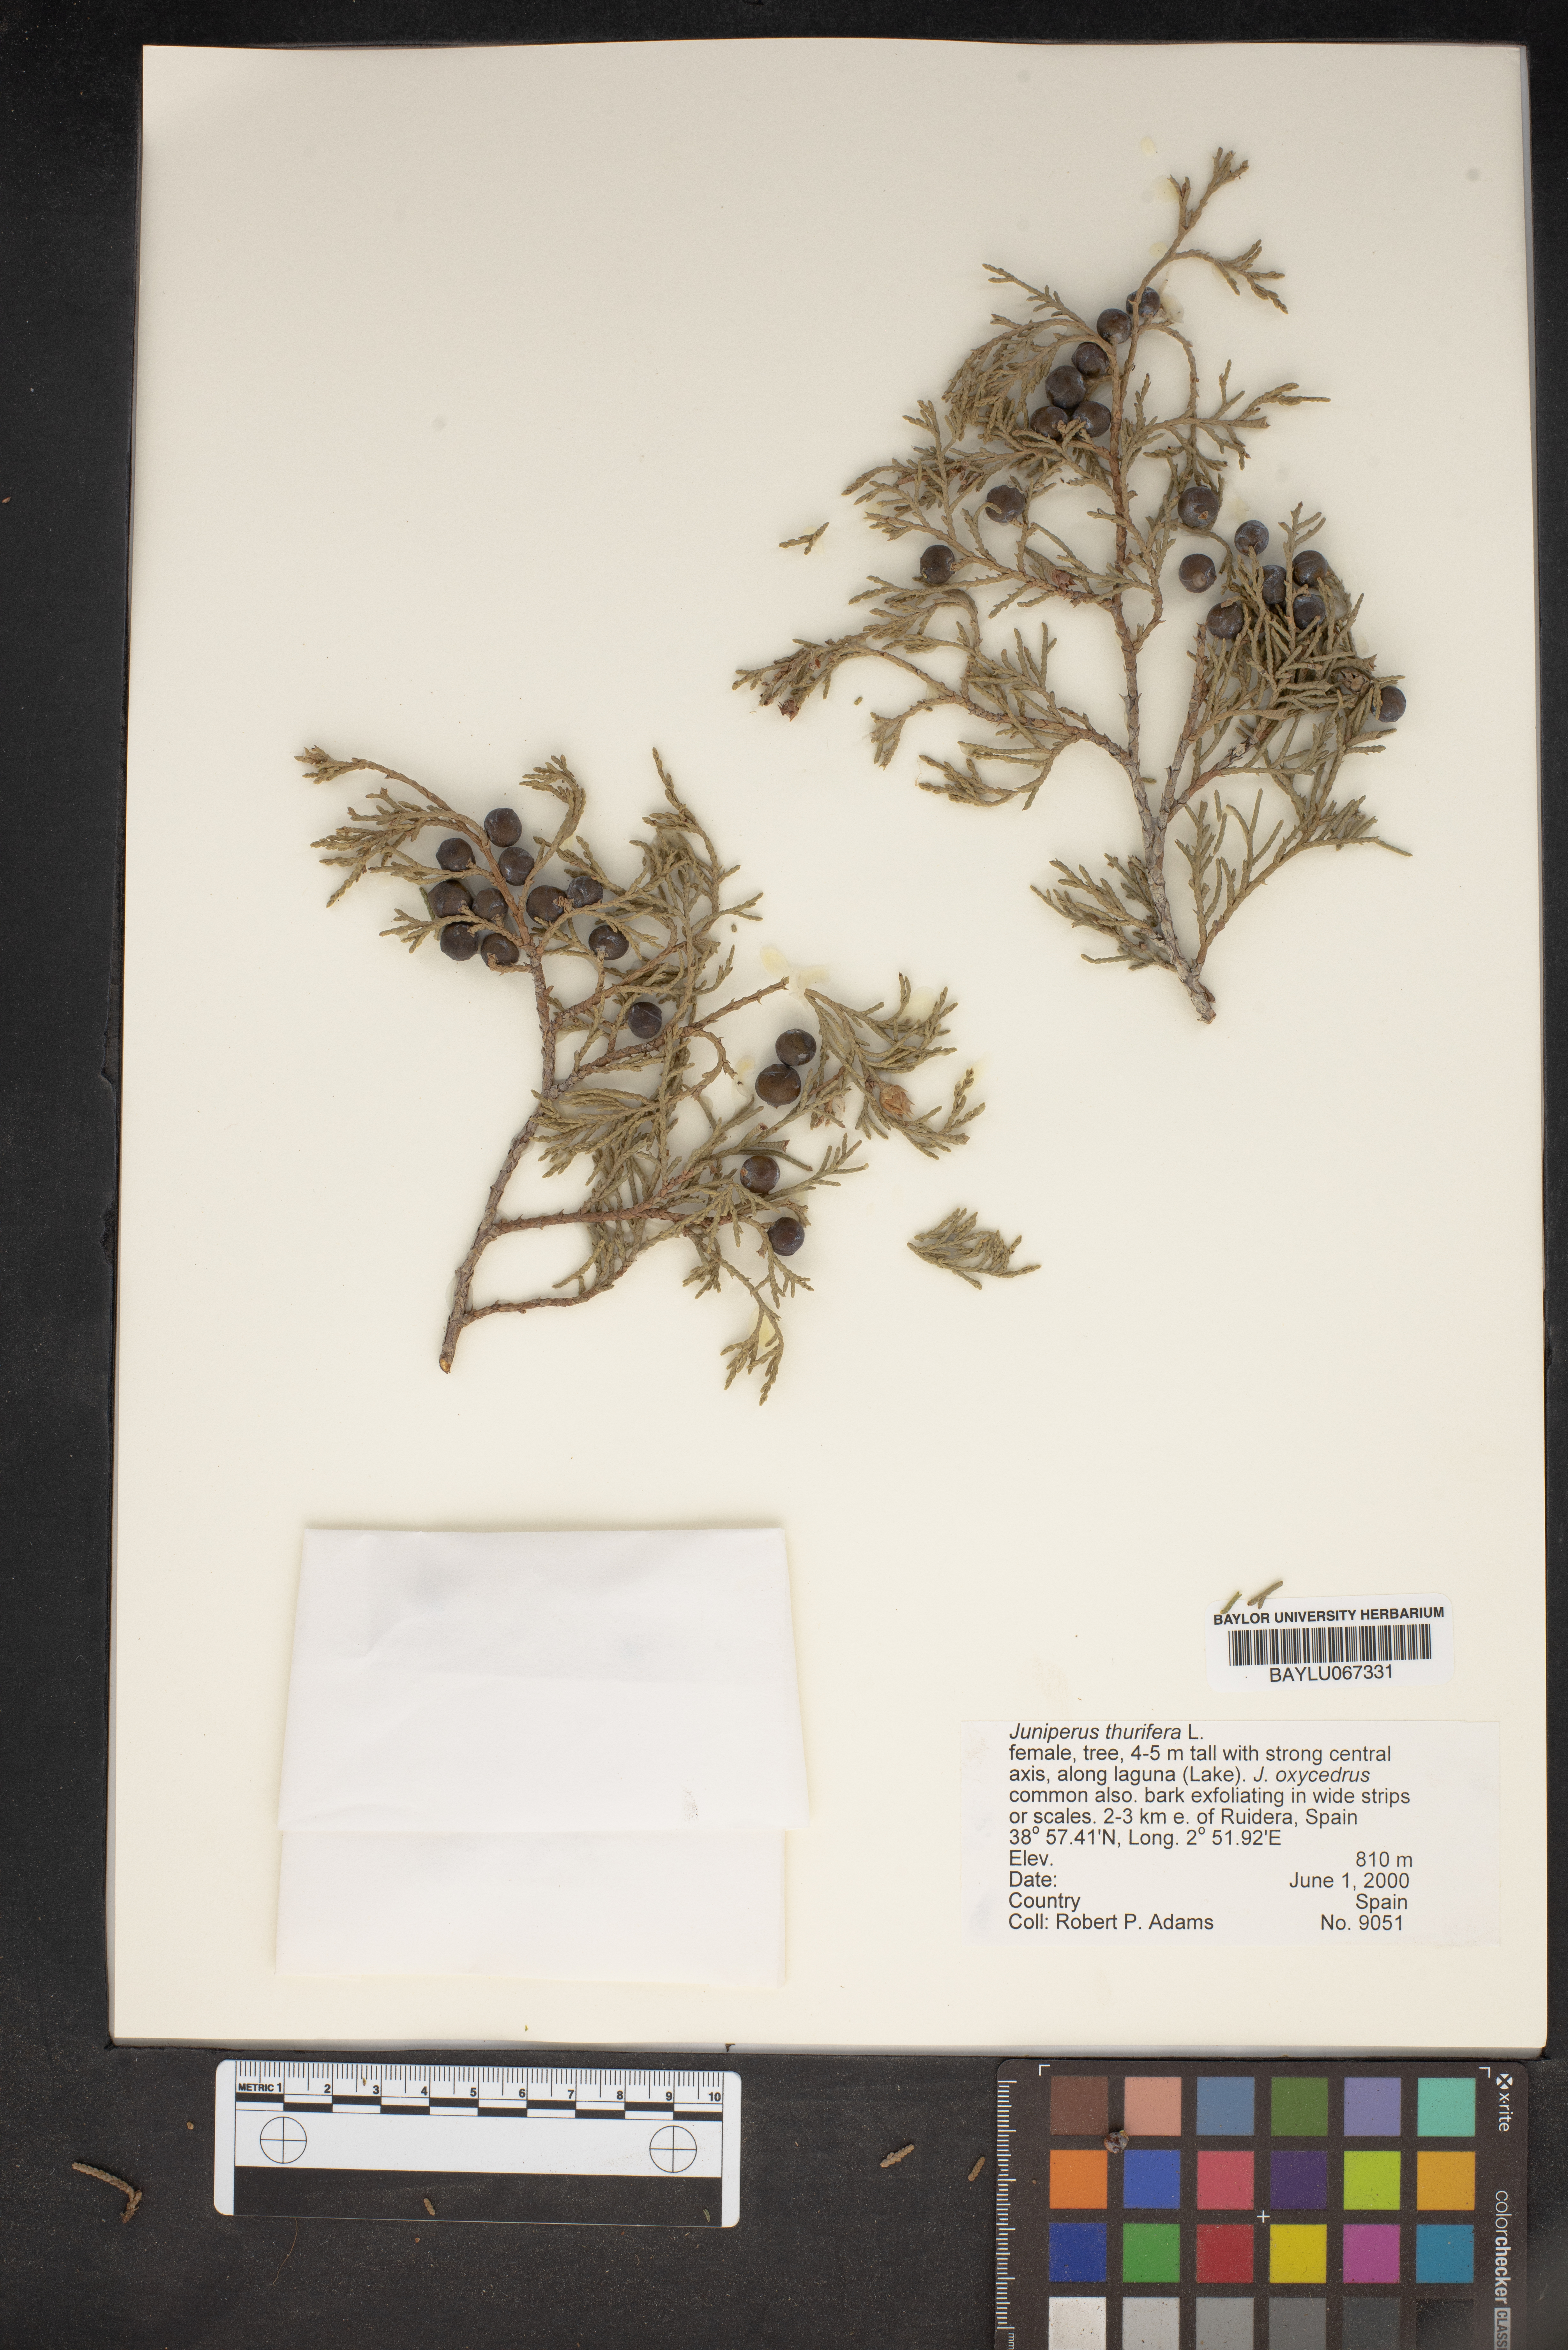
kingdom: Plantae
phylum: Tracheophyta
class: Pinopsida
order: Pinales
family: Cupressaceae
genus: Juniperus
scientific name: Juniperus thurifera
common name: Incense juniper
